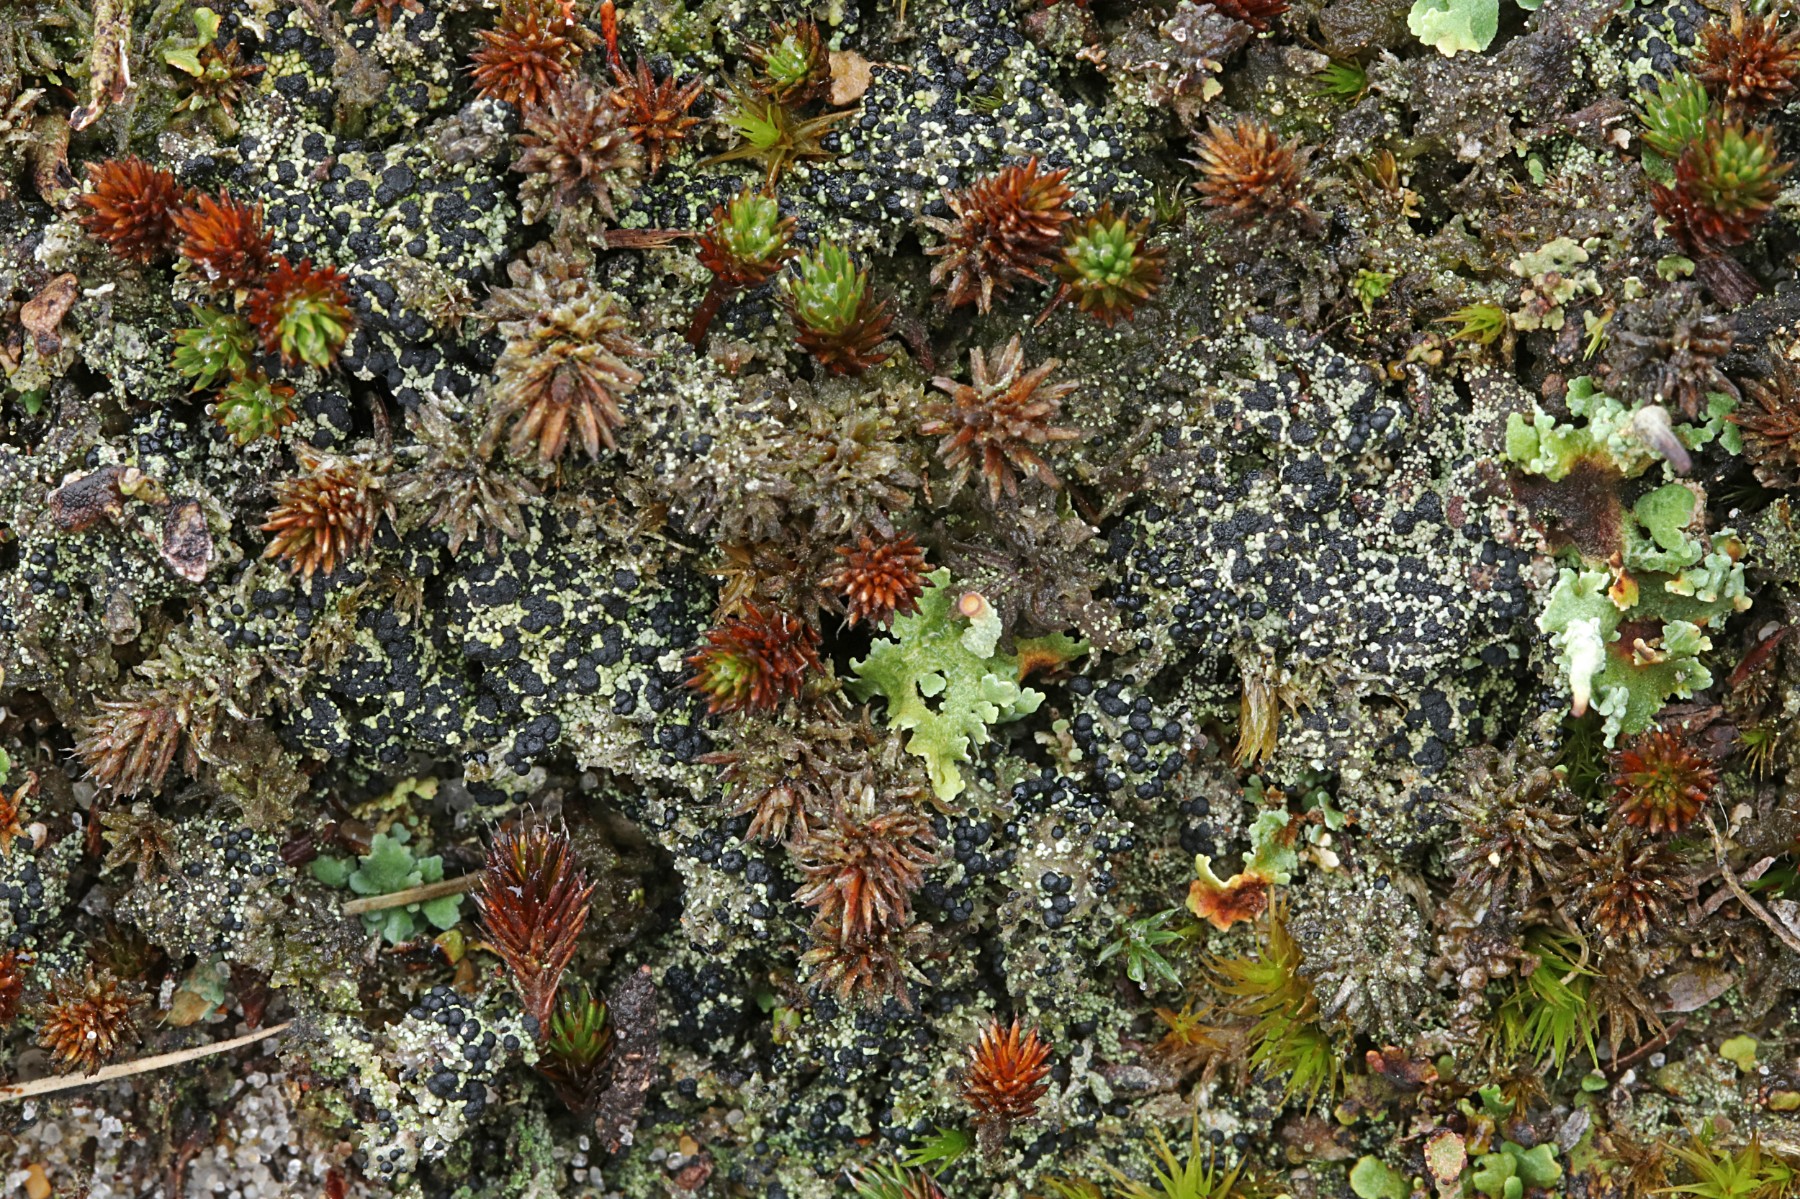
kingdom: Fungi
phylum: Ascomycota
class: Lecanoromycetes
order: Lecanorales
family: Byssolomataceae
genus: Micarea
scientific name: Micarea lignaria
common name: tørve-knaplav
